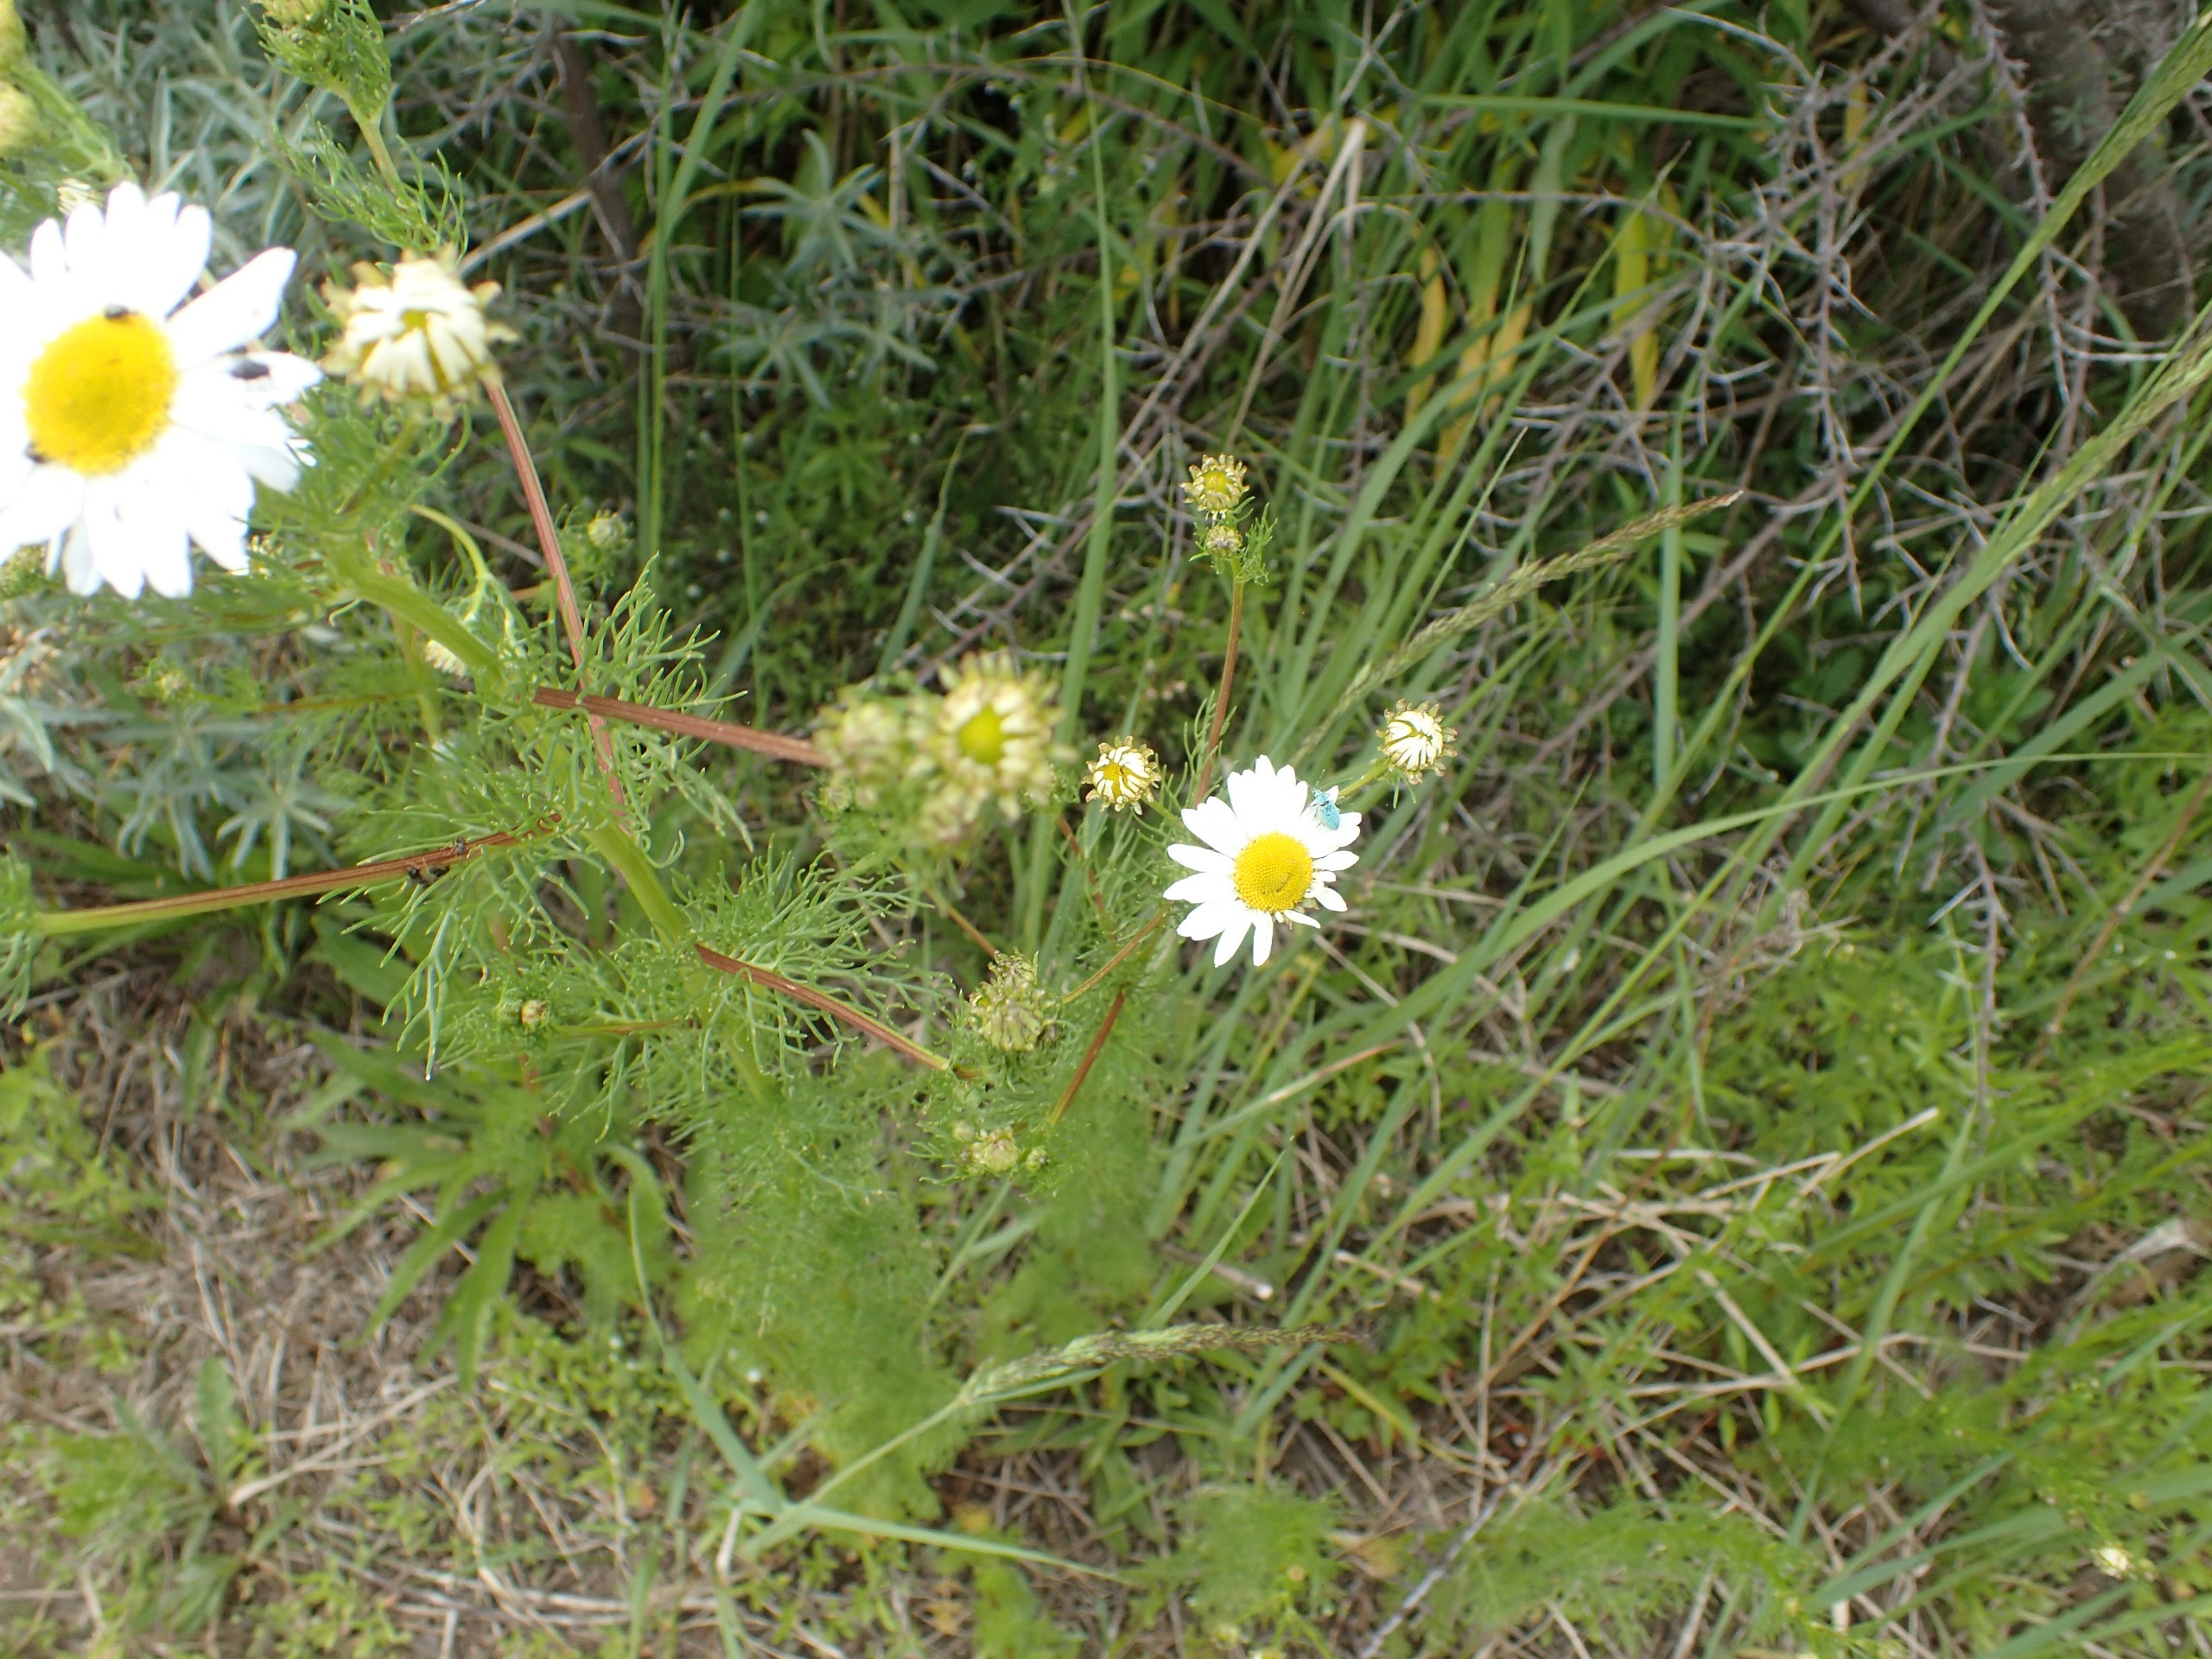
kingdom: Plantae
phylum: Tracheophyta
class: Magnoliopsida
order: Asterales
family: Asteraceae
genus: Tripleurospermum
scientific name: Tripleurospermum inodorum
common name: Lugtløs kamille
